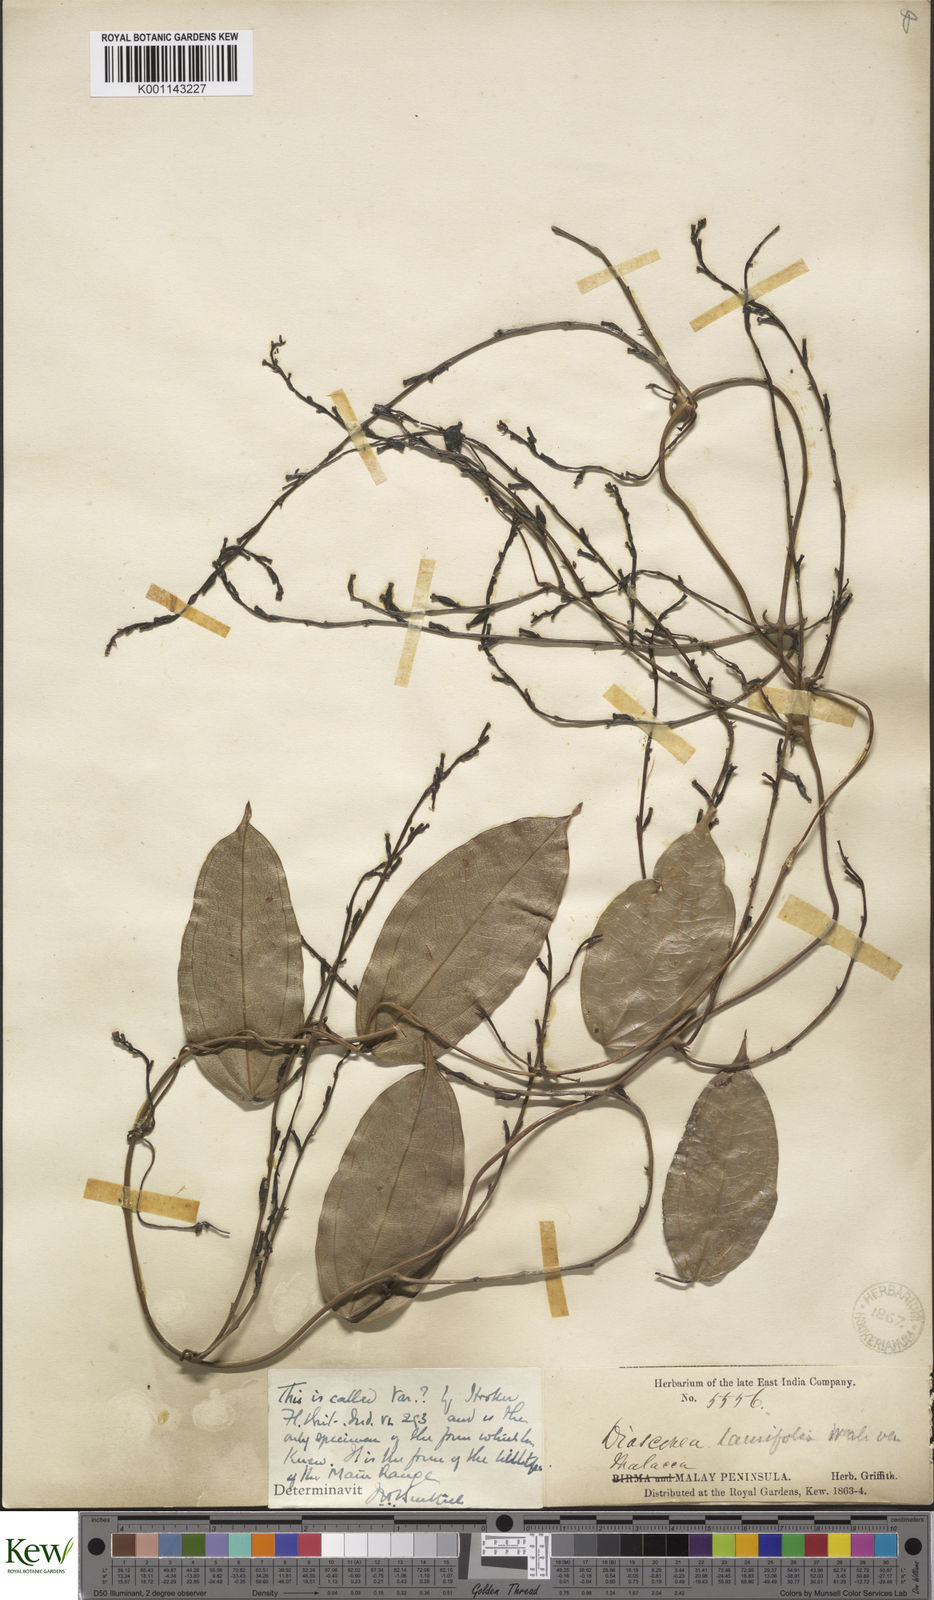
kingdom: Plantae
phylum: Tracheophyta
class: Liliopsida
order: Dioscoreales
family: Dioscoreaceae
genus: Dioscorea
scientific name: Dioscorea laurifolia
